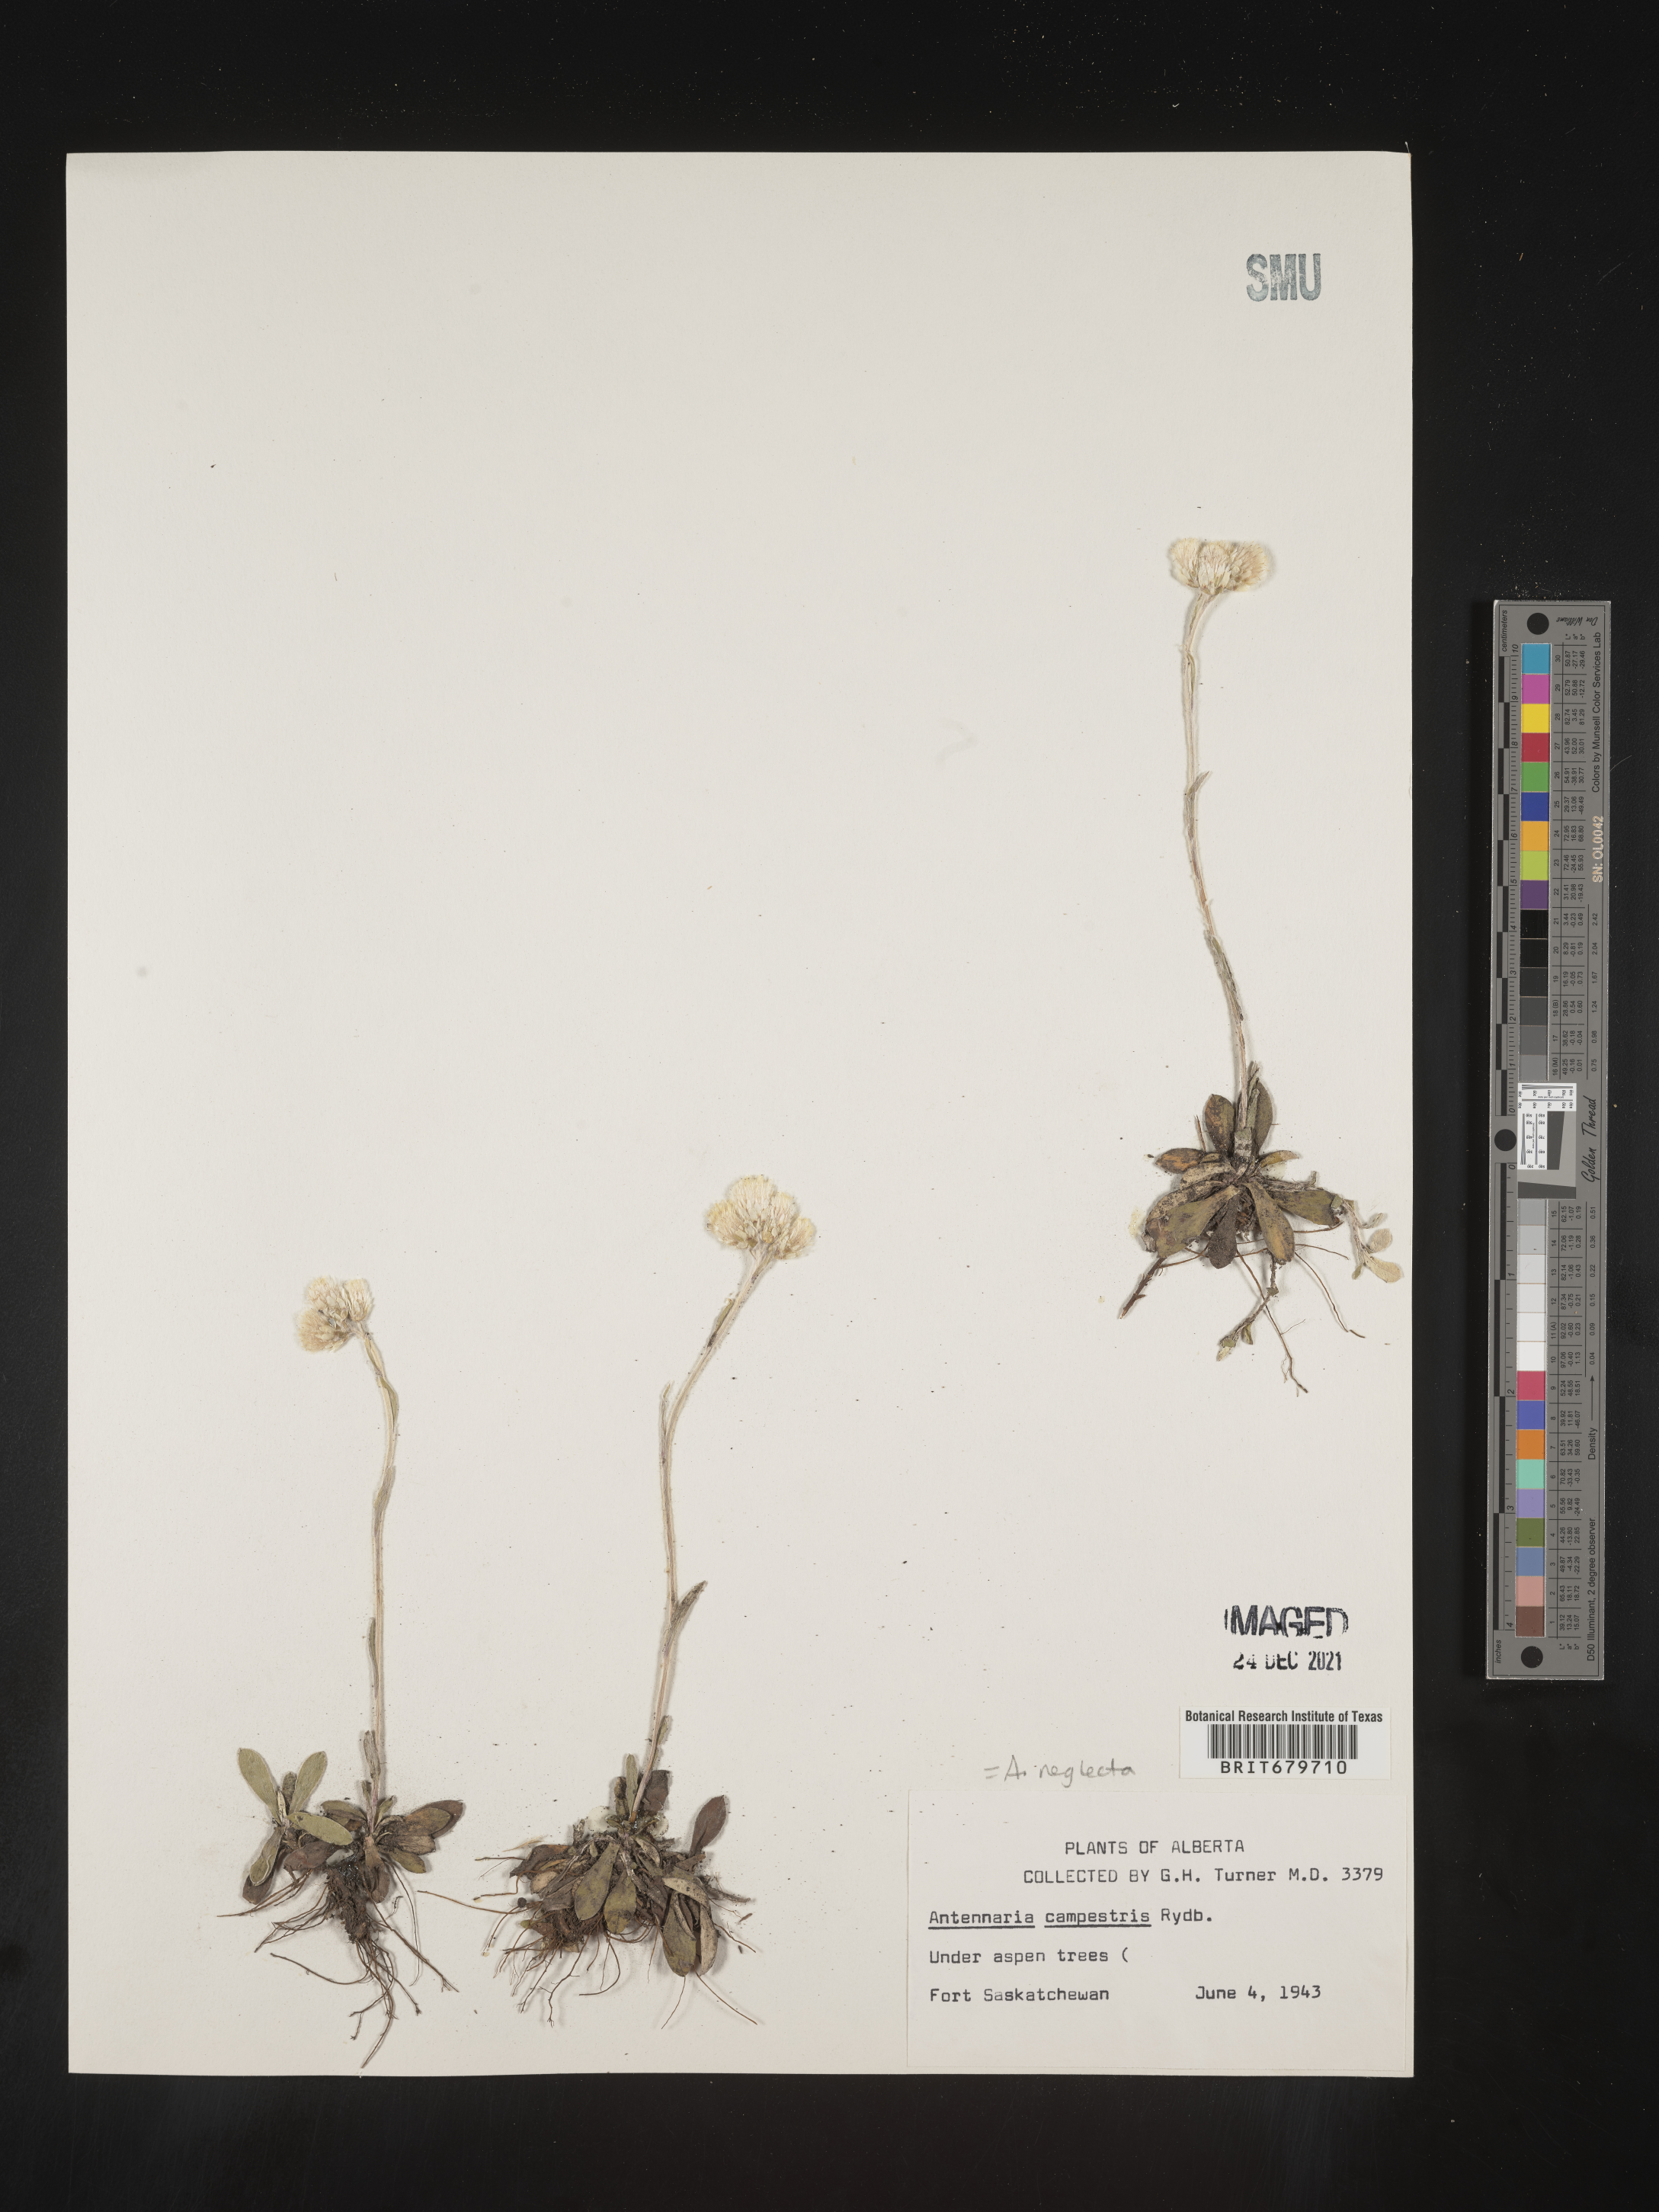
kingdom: Plantae
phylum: Tracheophyta
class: Magnoliopsida
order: Asterales
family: Asteraceae
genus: Antennaria
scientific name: Antennaria neglecta
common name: Field pussytoes
